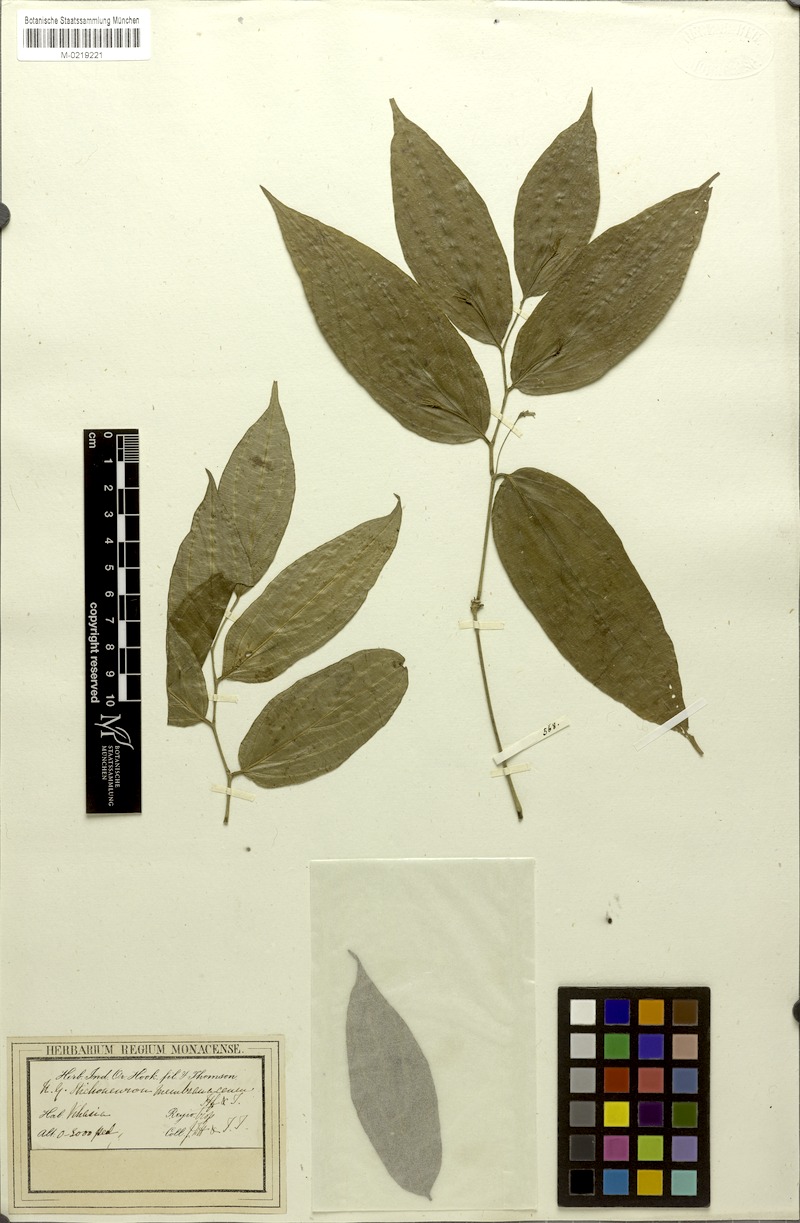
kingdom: Plantae
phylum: Tracheophyta
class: Liliopsida
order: Pandanales
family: Stemonaceae
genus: Stichoneuron
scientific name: Stichoneuron membranaceum
